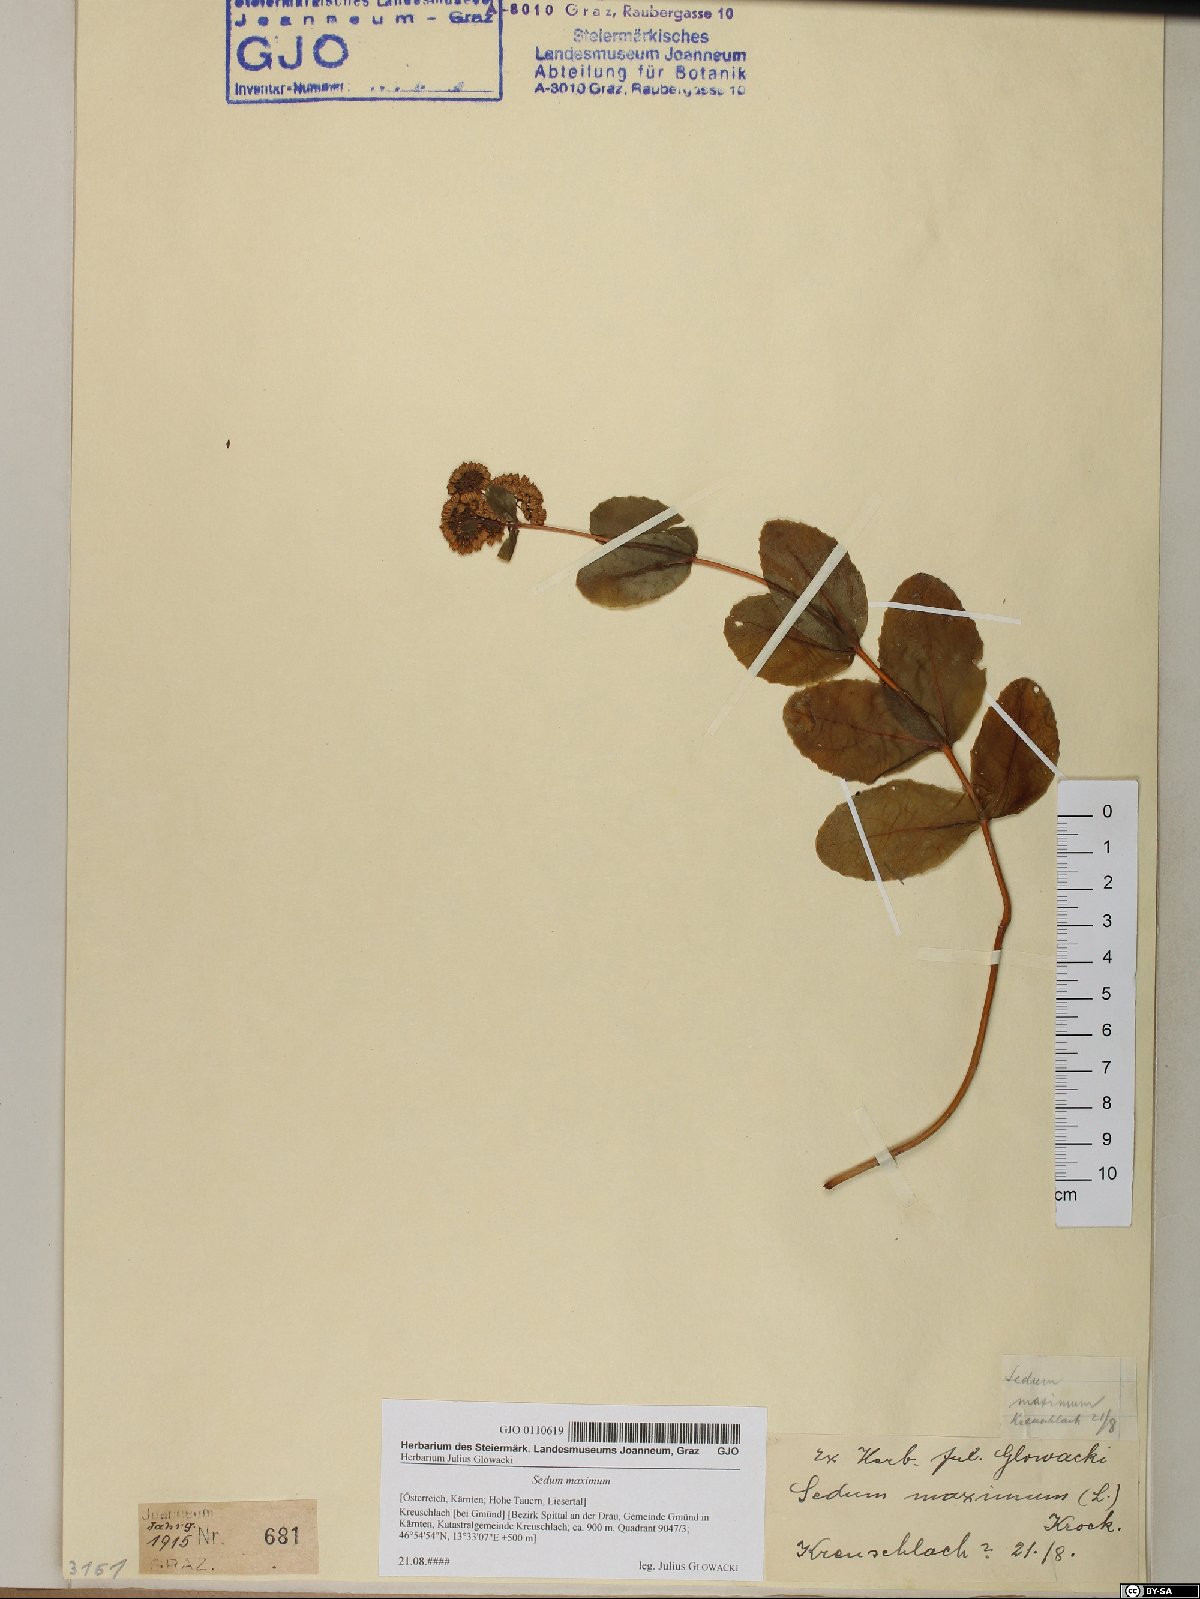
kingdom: Plantae
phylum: Tracheophyta
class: Magnoliopsida
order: Saxifragales
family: Crassulaceae
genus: Hylotelephium
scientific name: Hylotelephium maximum
